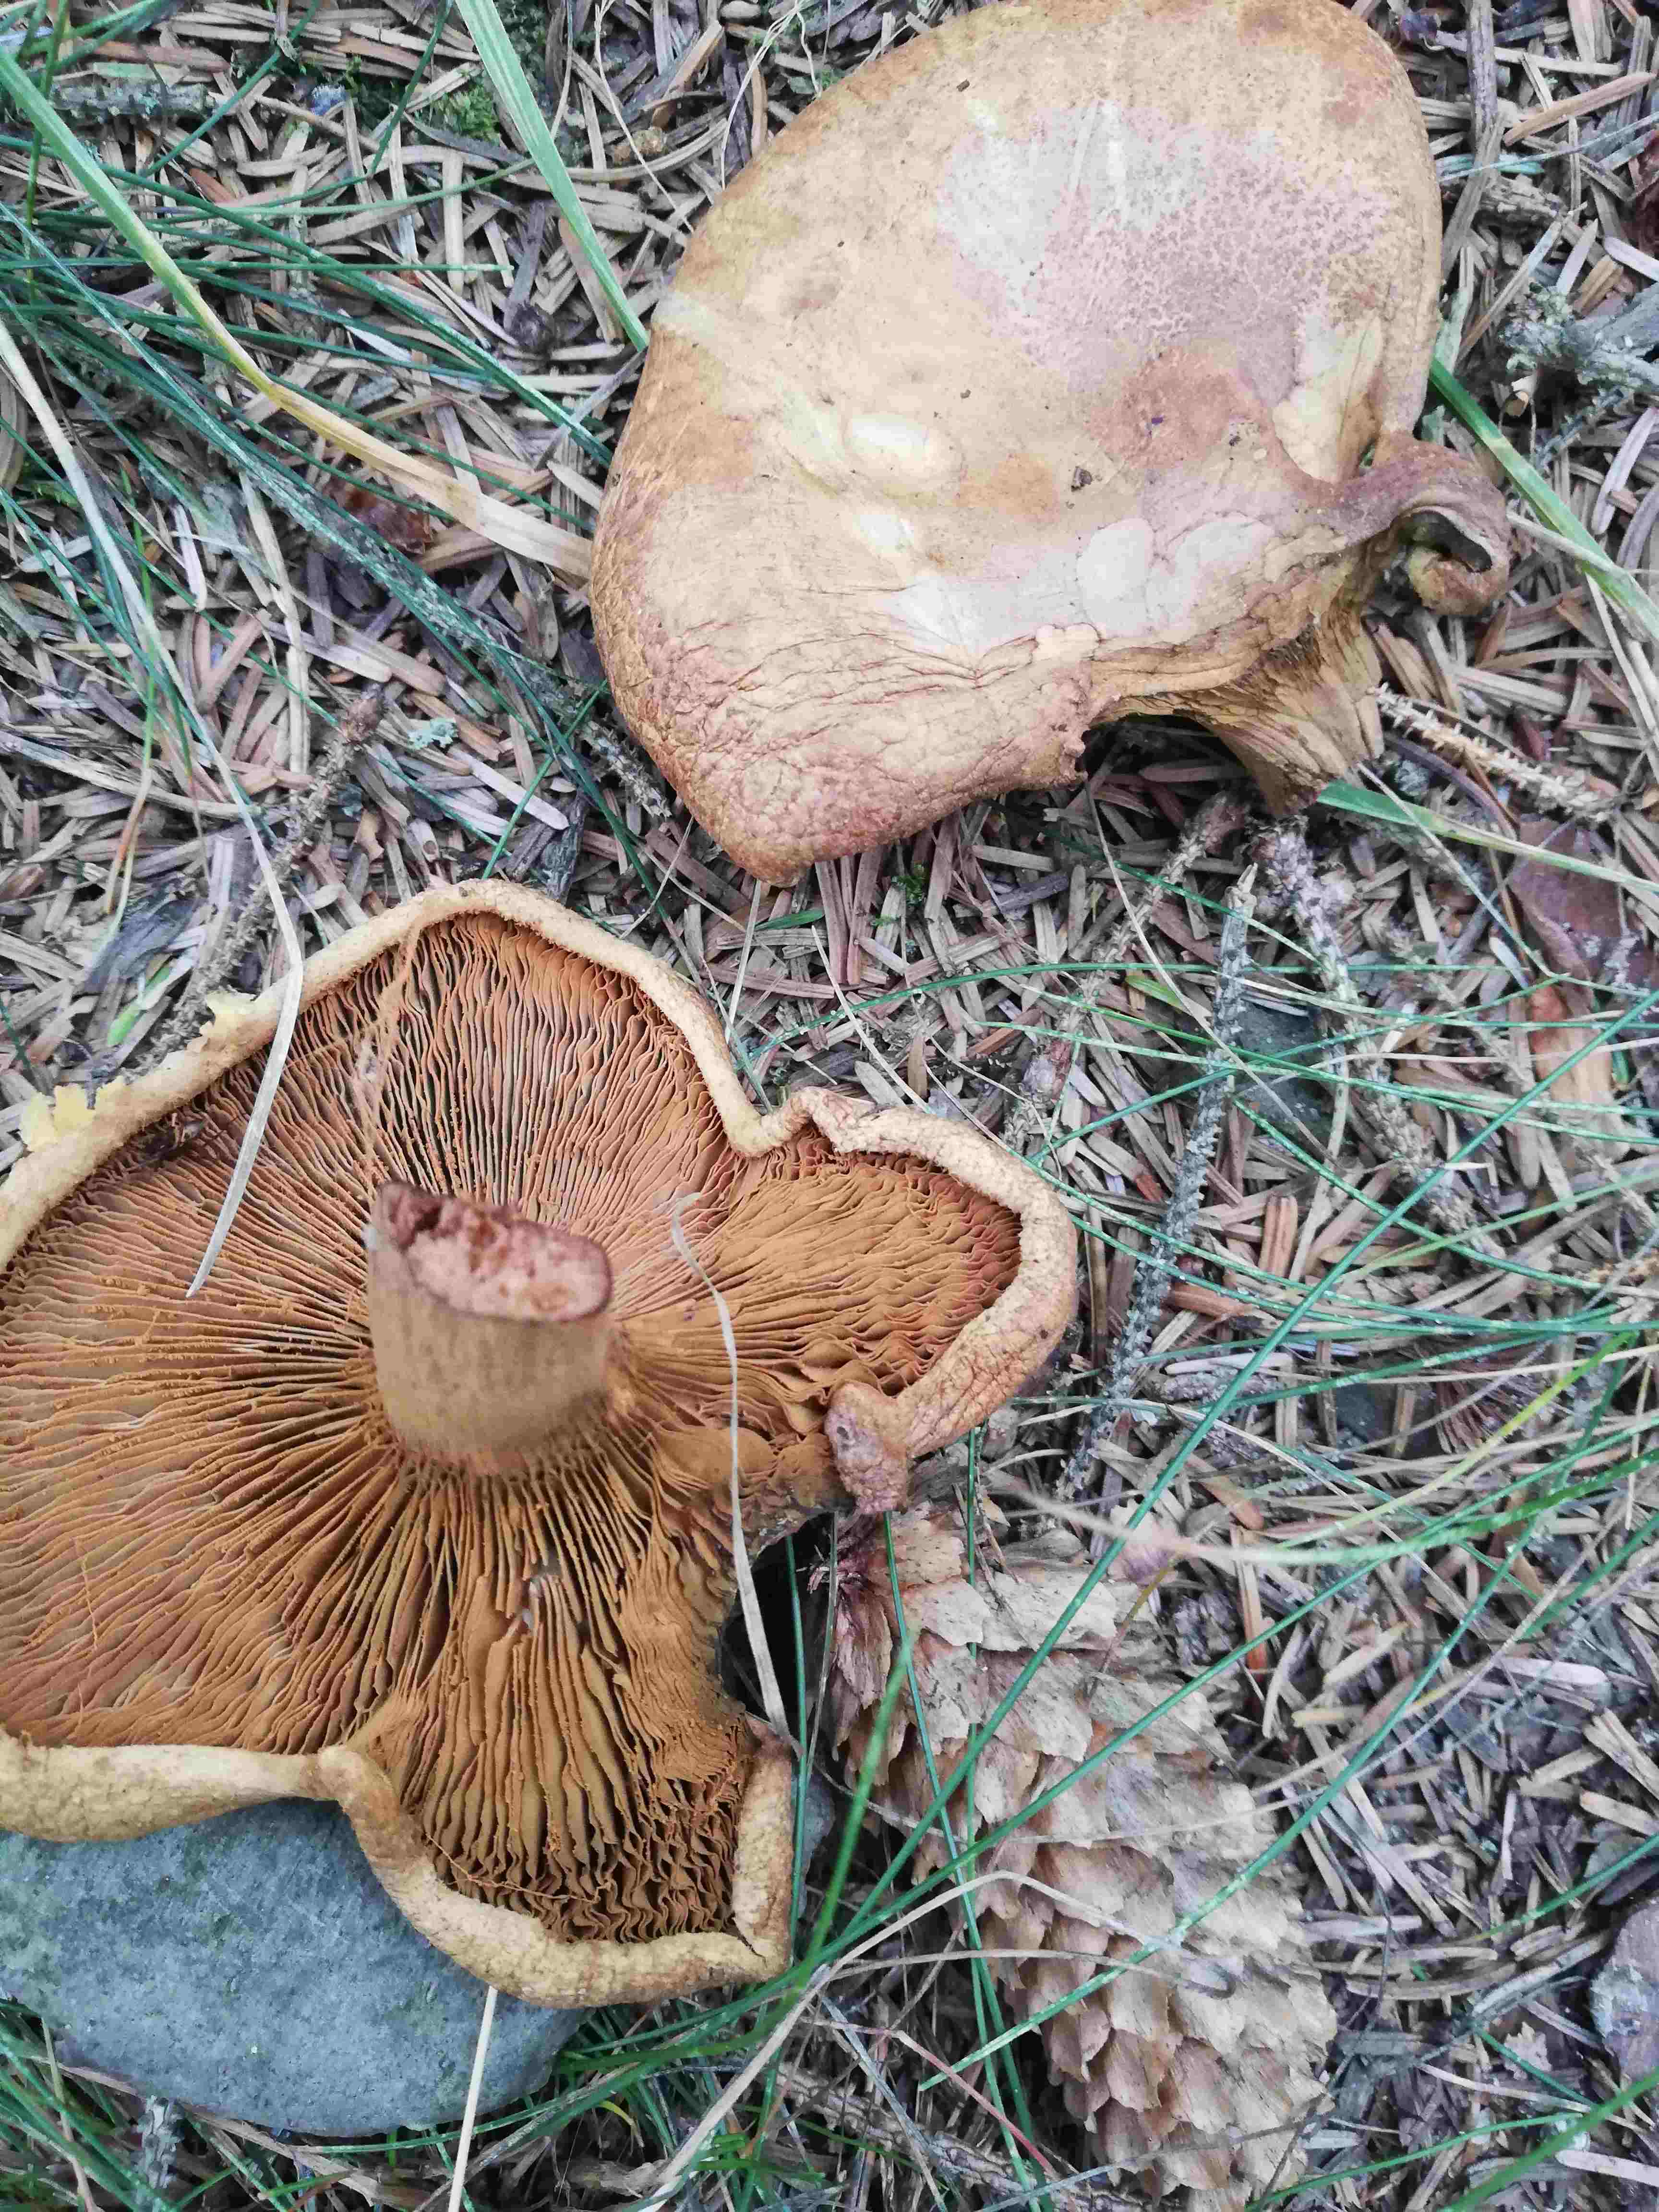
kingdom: Fungi
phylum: Basidiomycota
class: Agaricomycetes
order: Boletales
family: Paxillaceae
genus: Paxillus
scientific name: Paxillus
